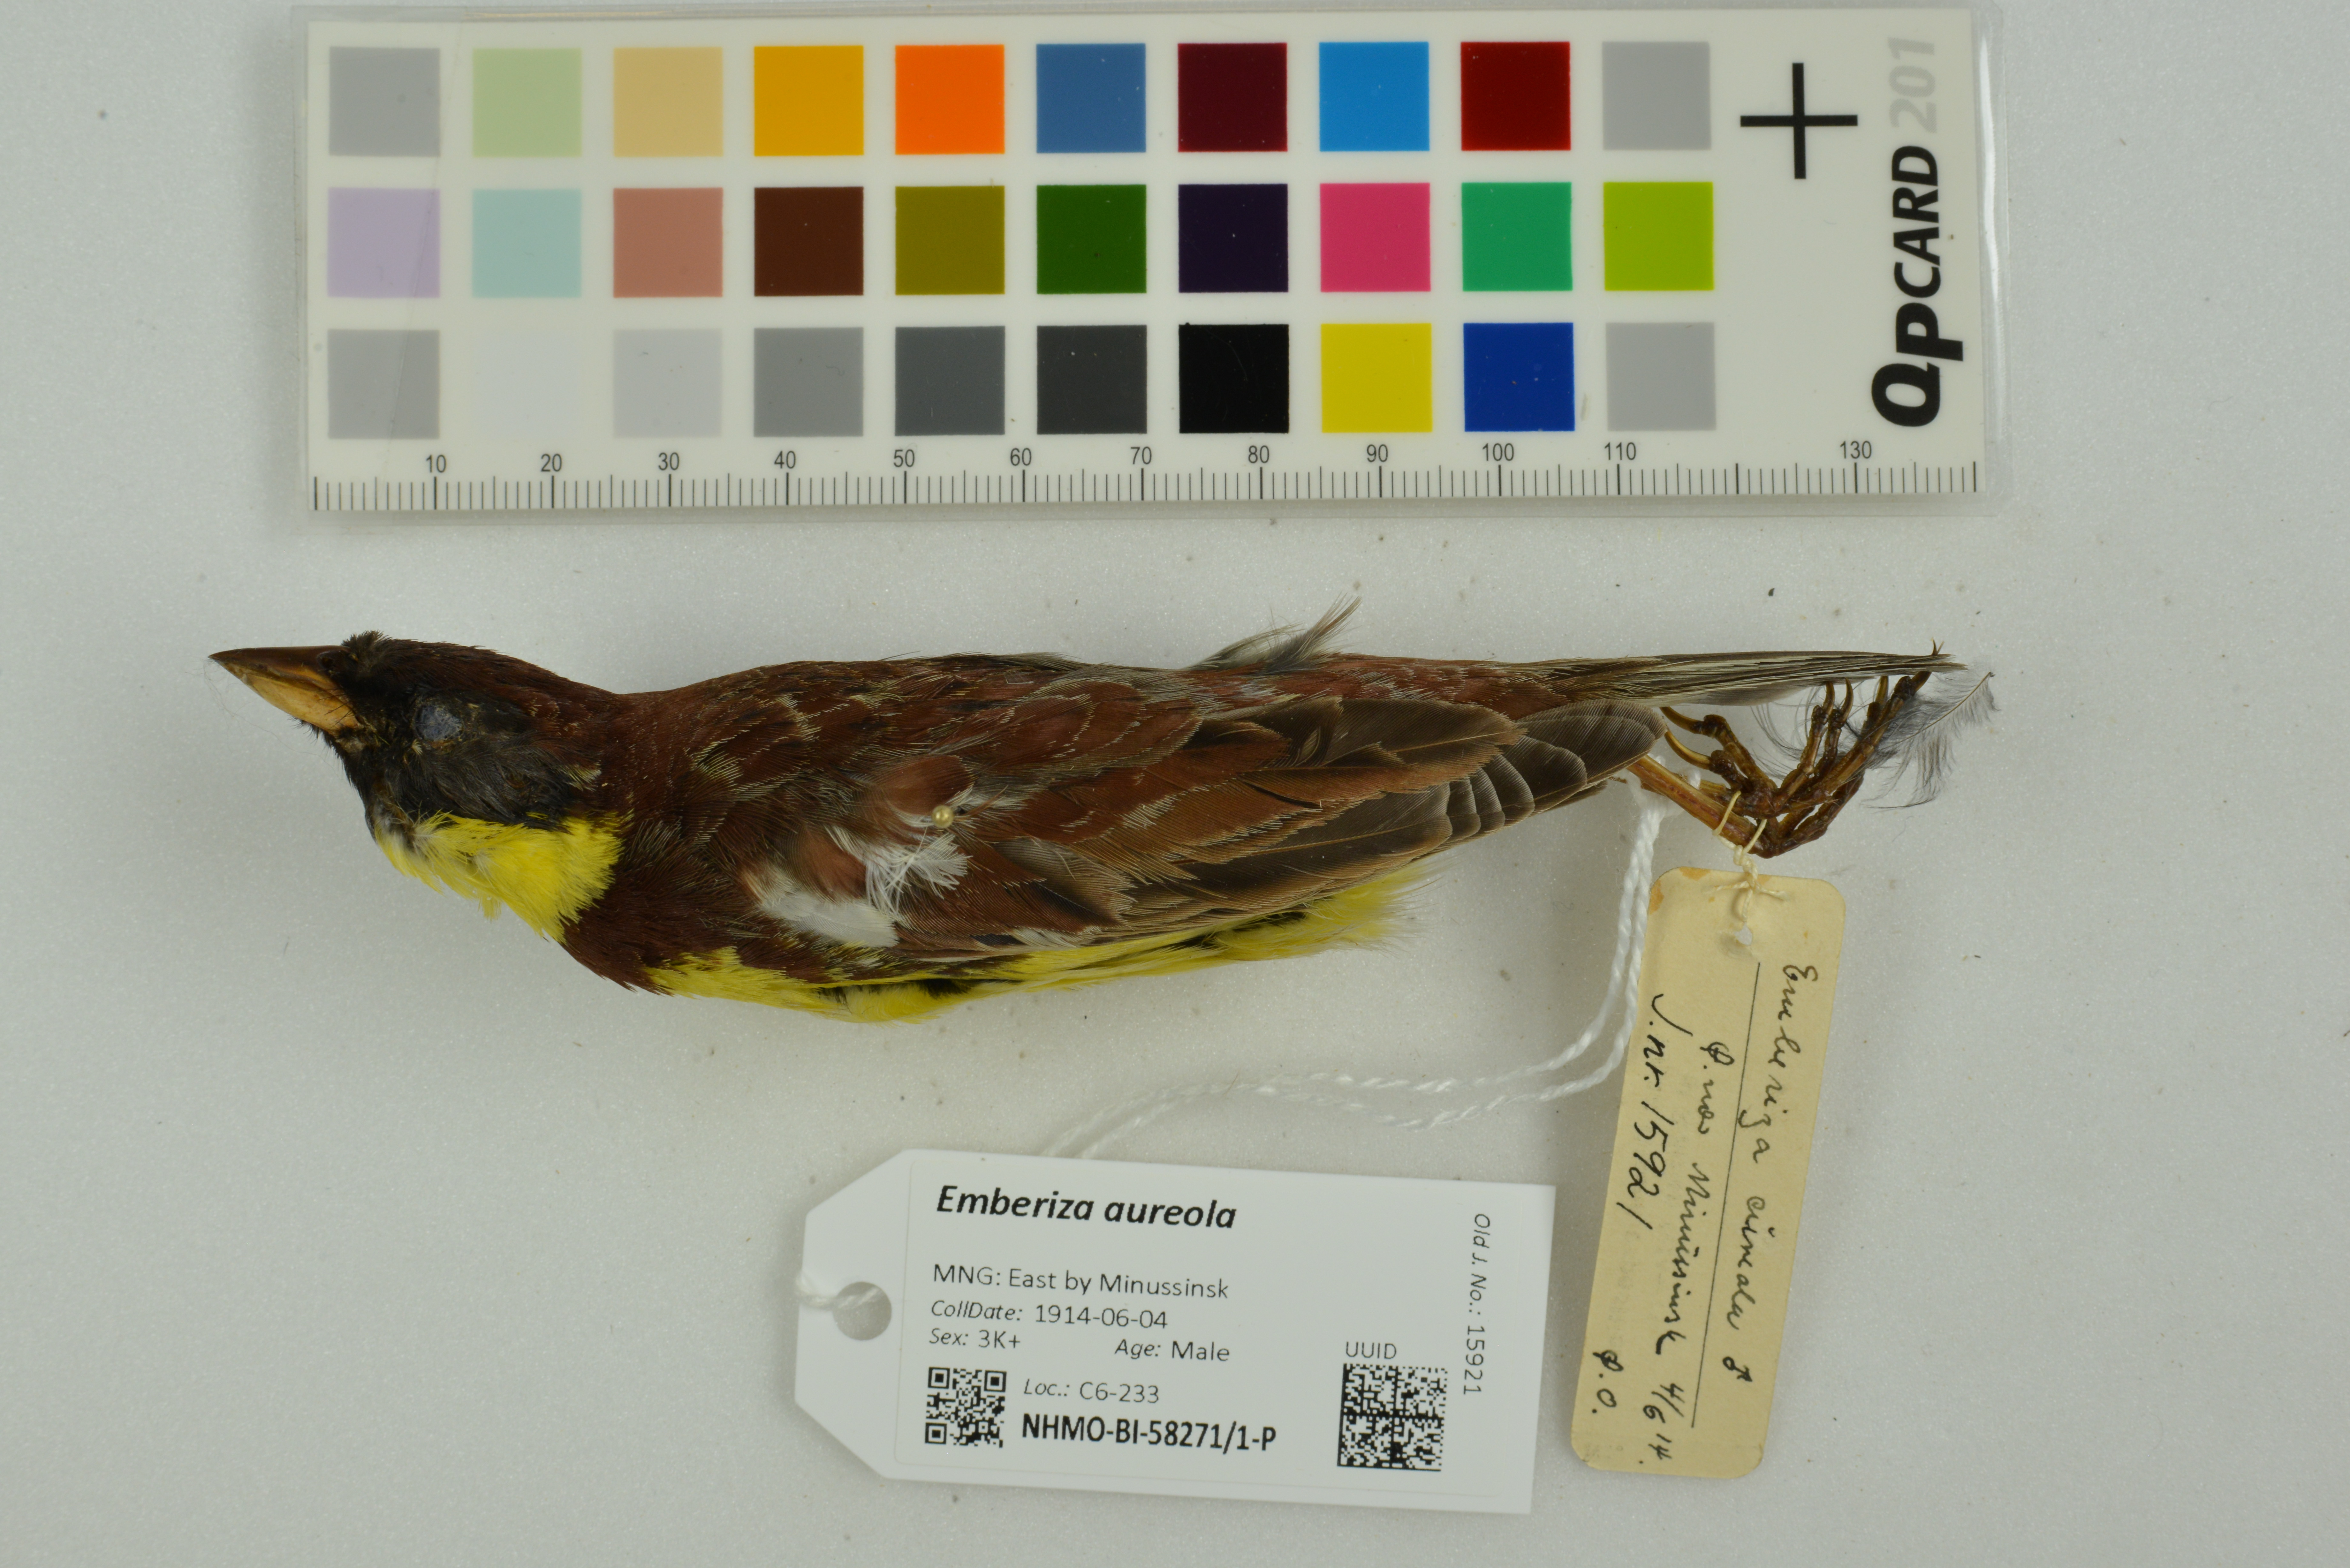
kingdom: Animalia
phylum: Chordata
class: Aves
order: Passeriformes
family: Emberizidae
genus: Emberiza
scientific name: Emberiza aureola
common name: Yellow-breasted bunting
